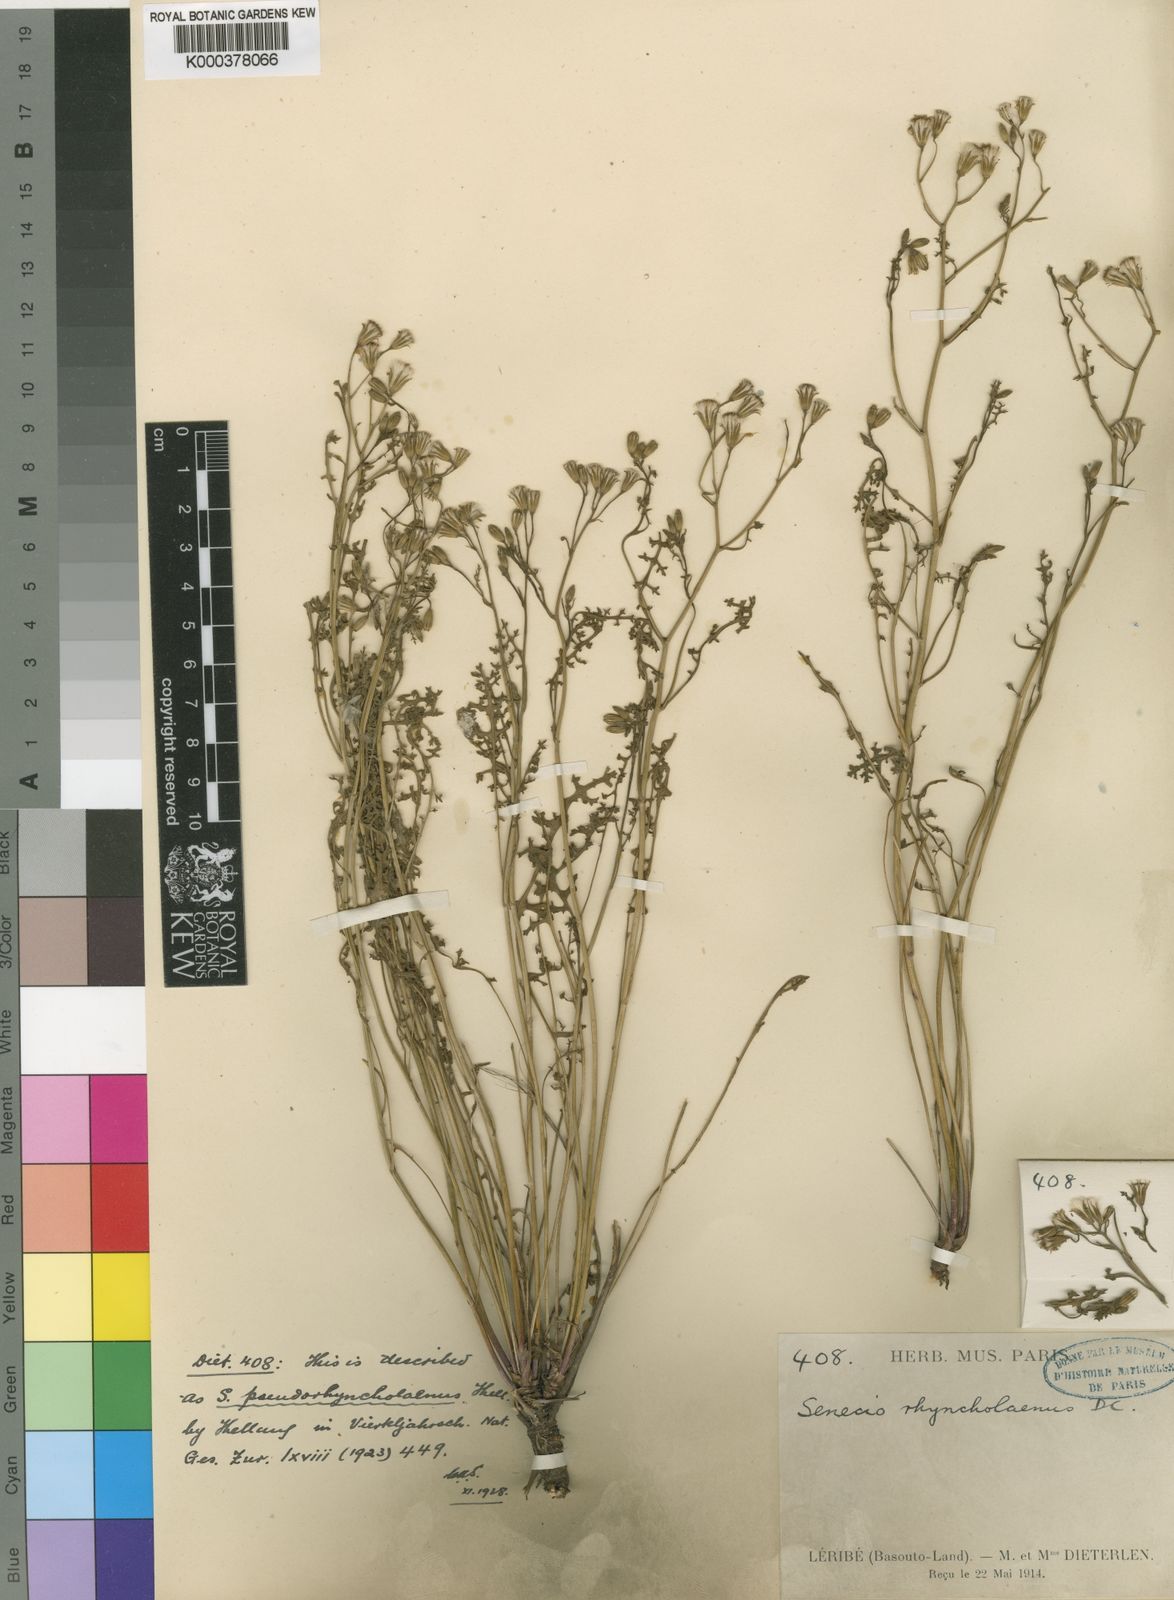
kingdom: Plantae
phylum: Tracheophyta
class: Magnoliopsida
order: Asterales
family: Asteraceae
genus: Senecio
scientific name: Senecio rhyncholaenus
